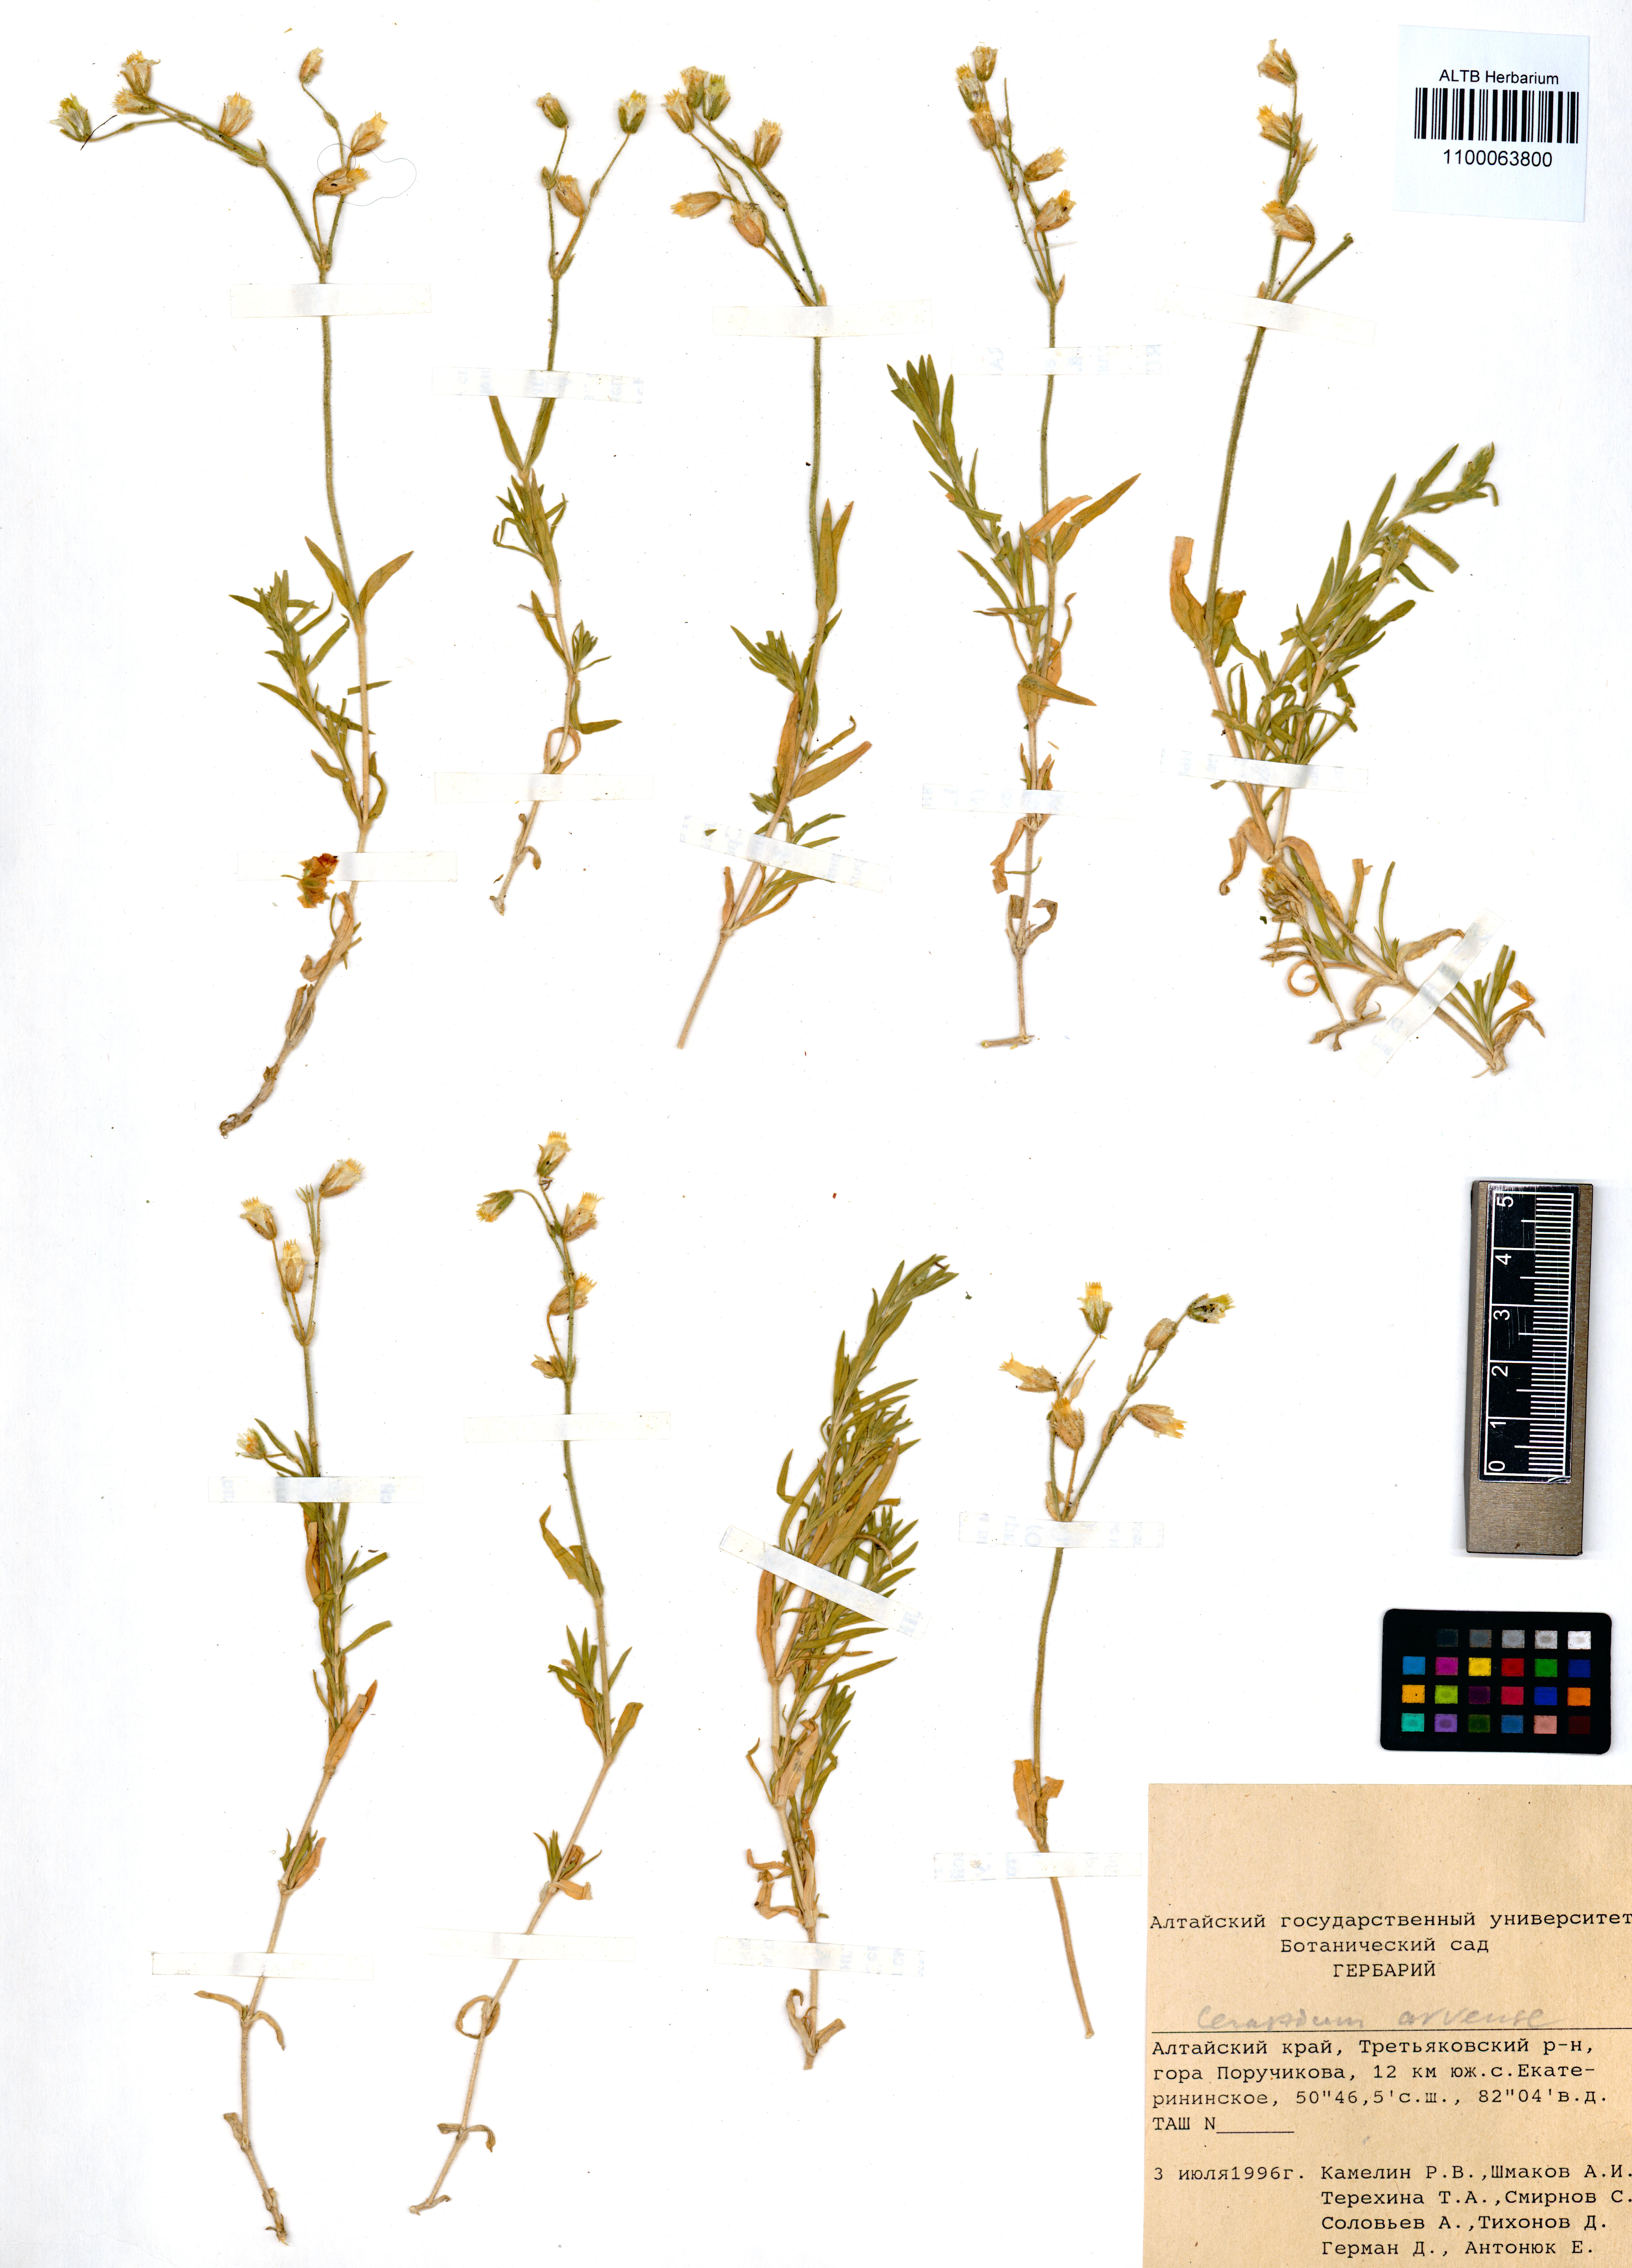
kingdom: Plantae
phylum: Tracheophyta
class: Magnoliopsida
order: Caryophyllales
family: Caryophyllaceae
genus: Cerastium
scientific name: Cerastium arvense
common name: Field mouse-ear
